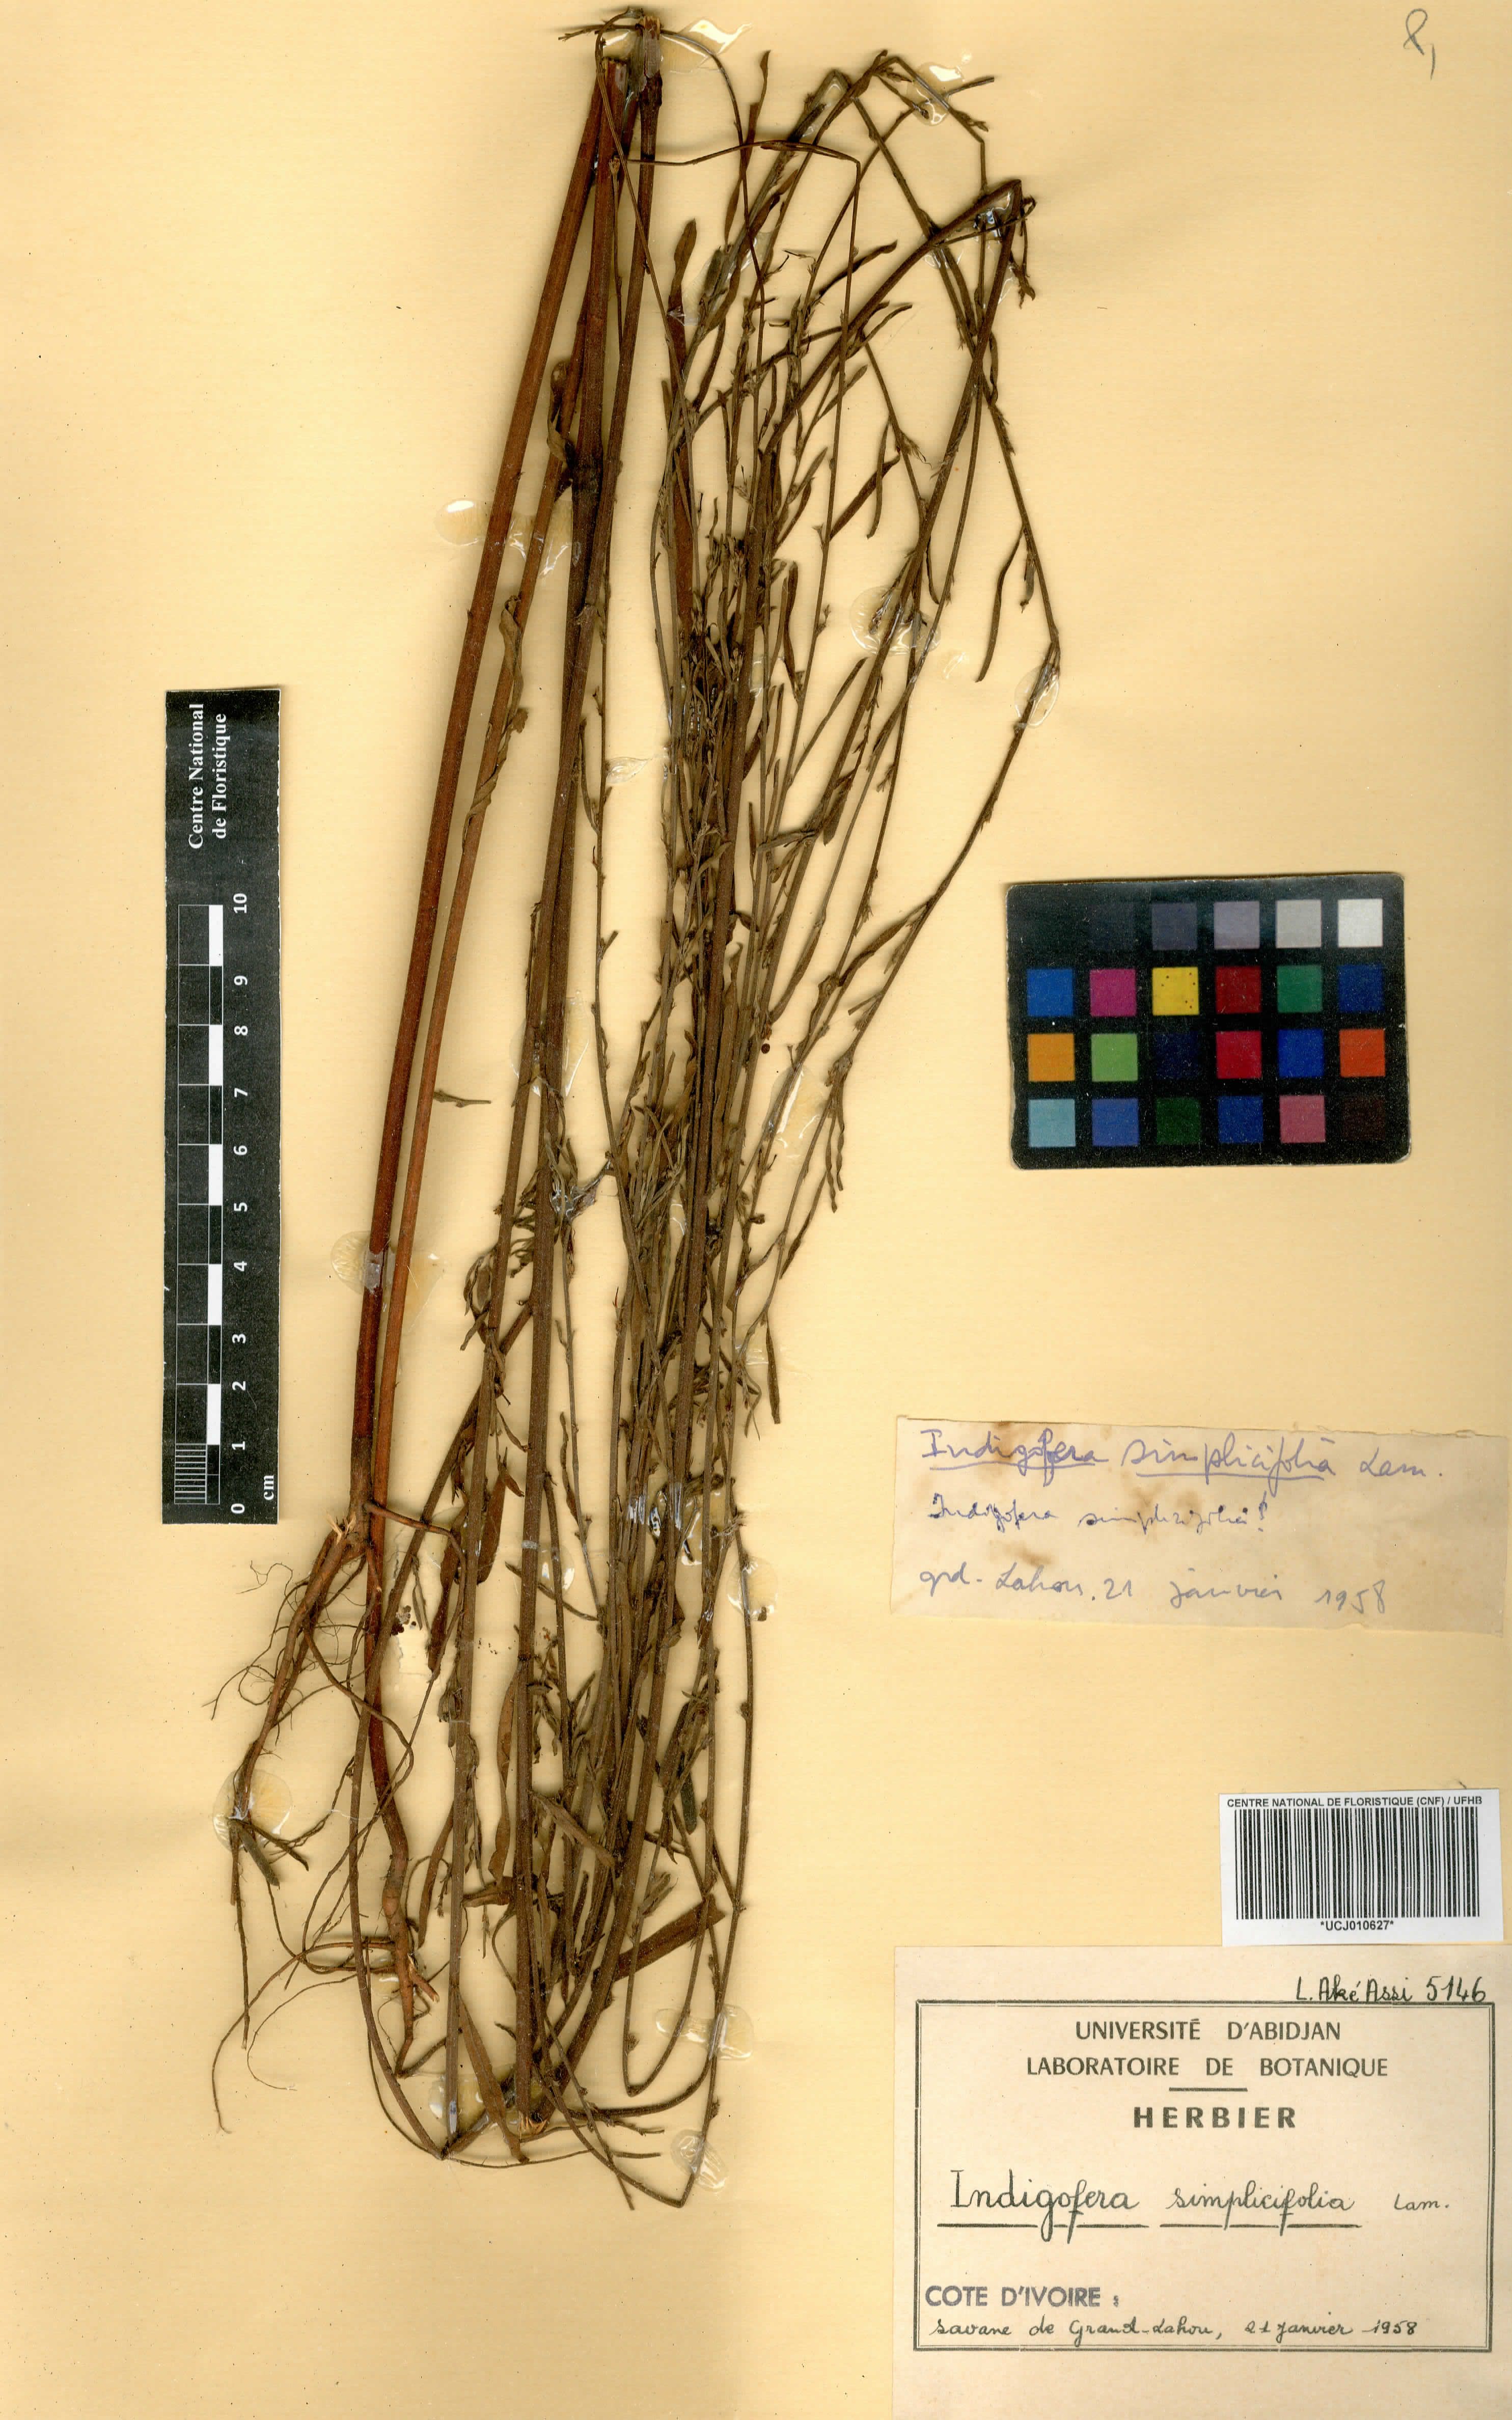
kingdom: Plantae
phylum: Tracheophyta
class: Magnoliopsida
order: Fabales
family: Fabaceae
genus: Indigofera
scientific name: Indigofera suffruticosa
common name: Anil de pasto
